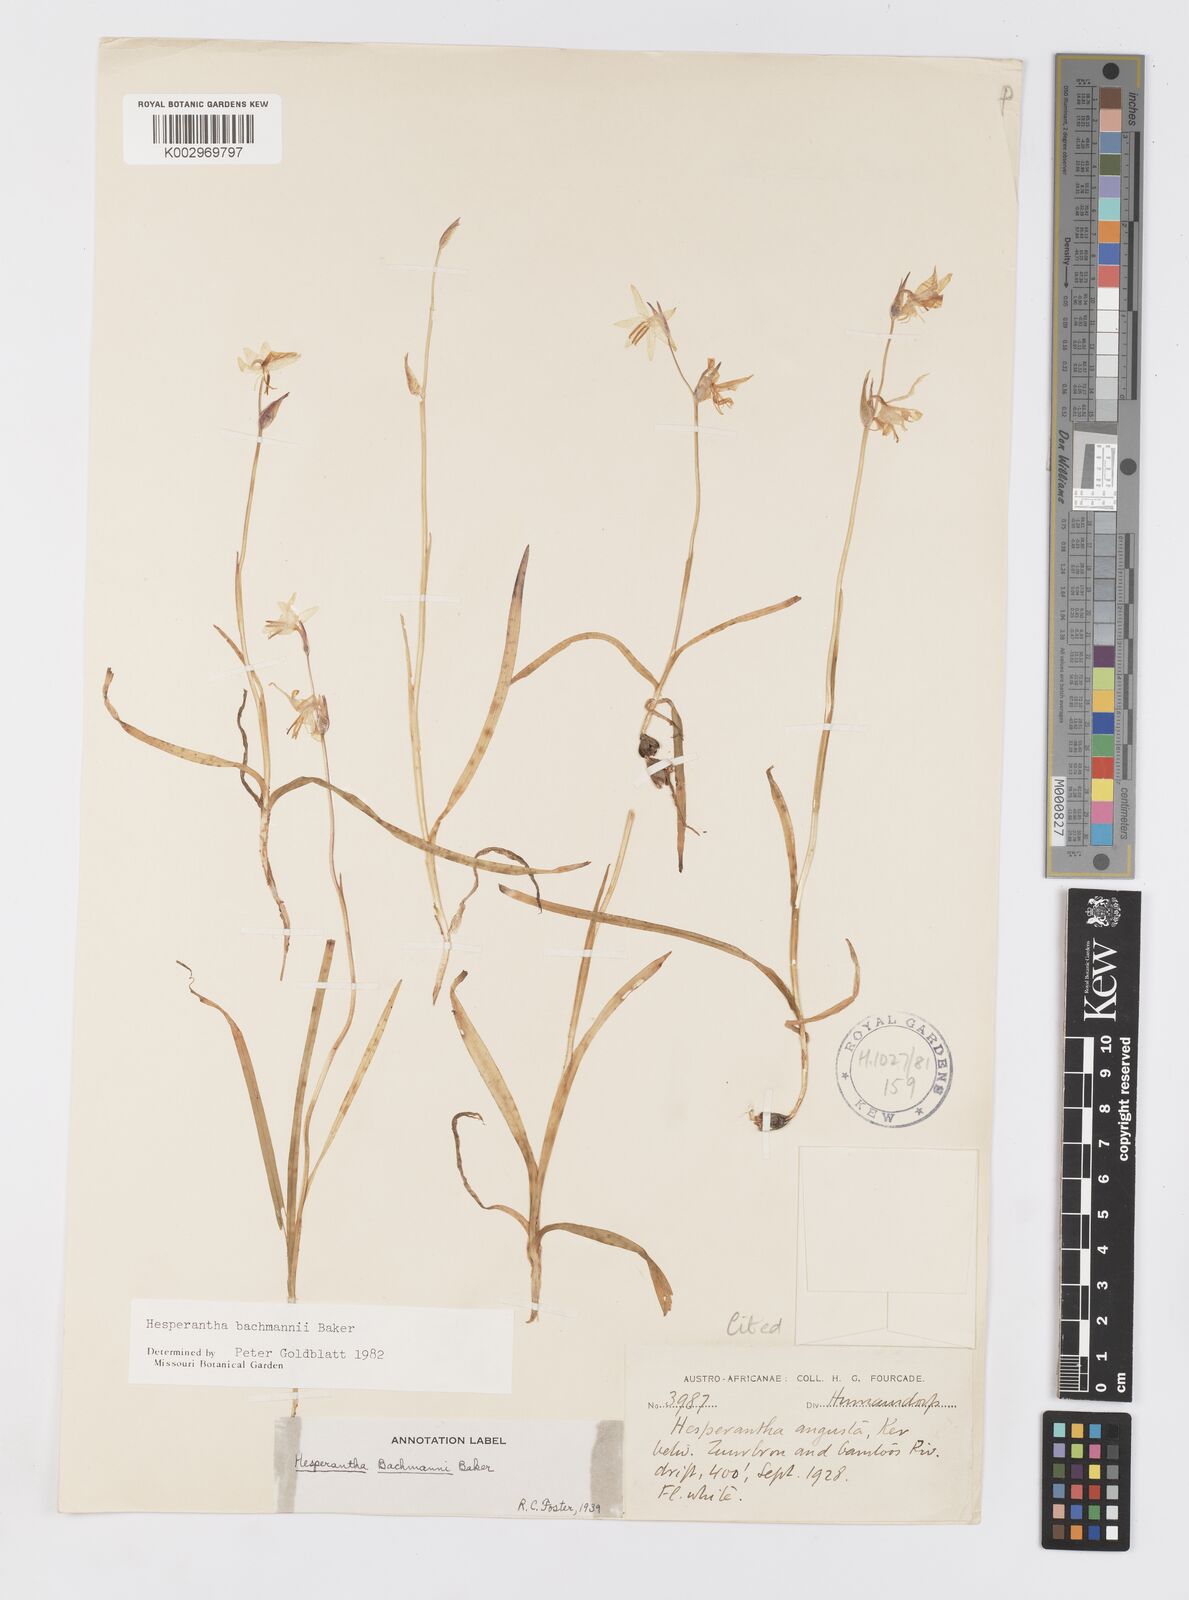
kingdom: Plantae
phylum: Tracheophyta
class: Liliopsida
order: Asparagales
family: Iridaceae
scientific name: Iridaceae
